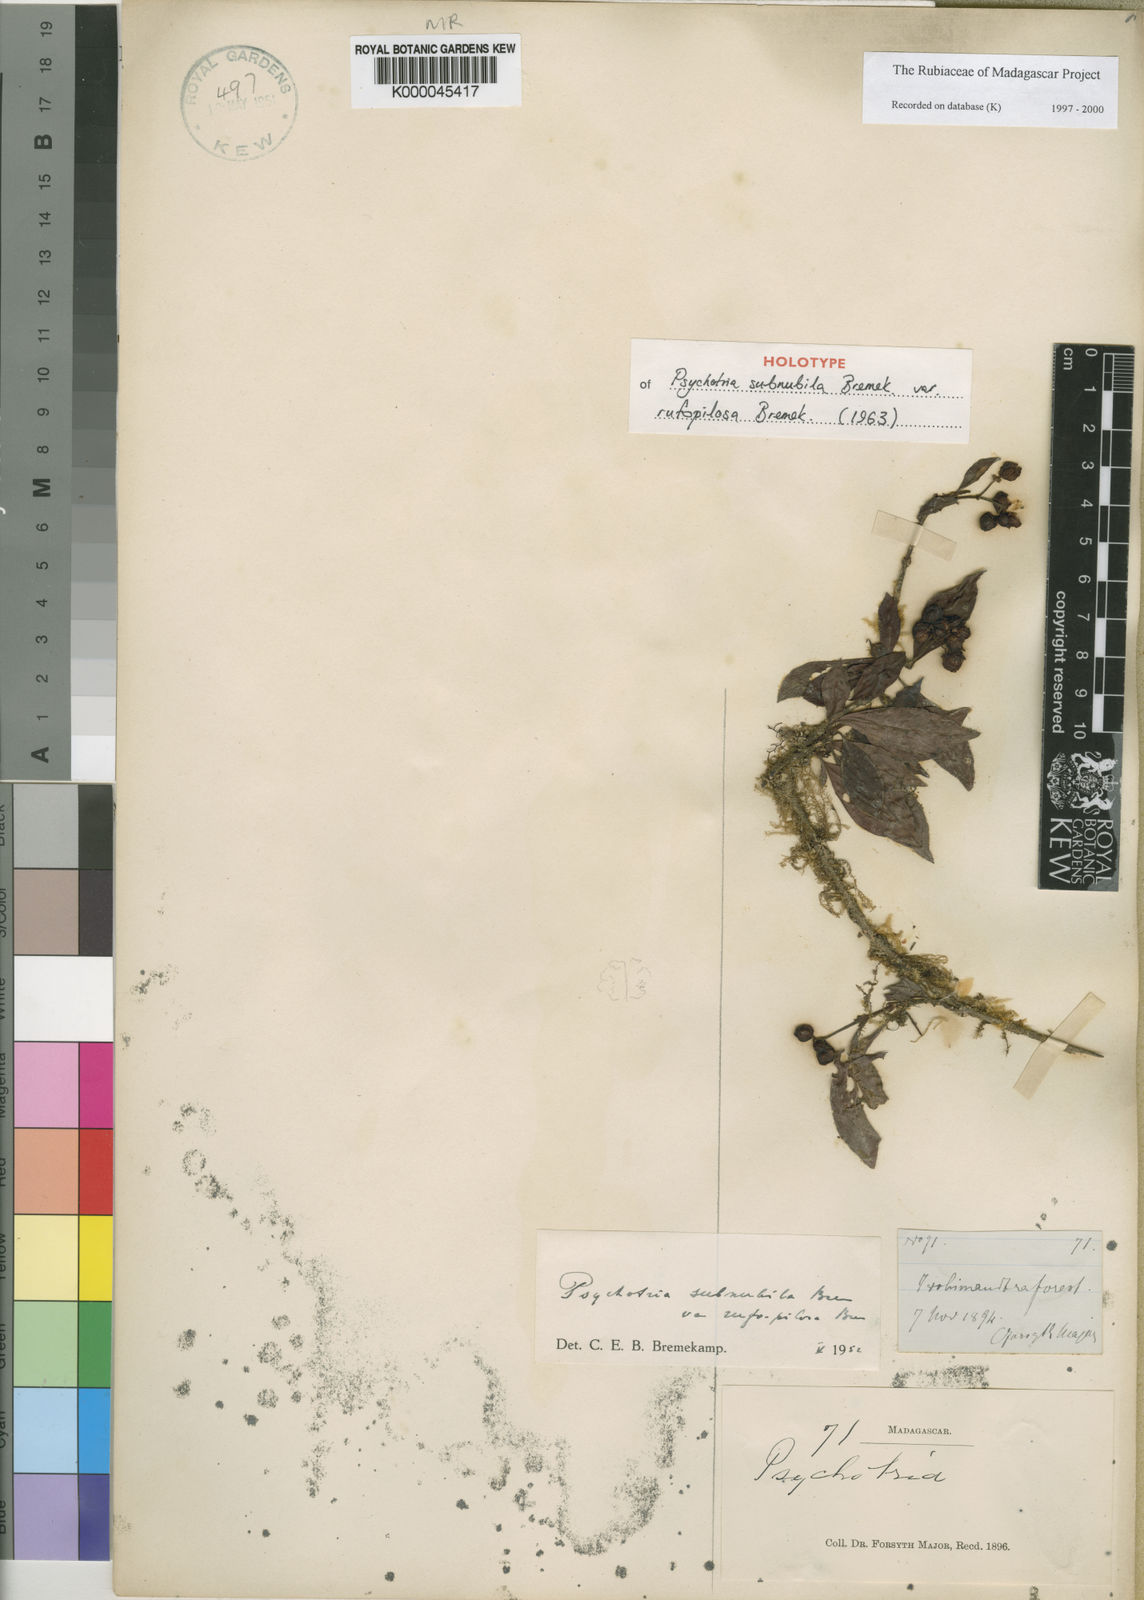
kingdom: Plantae
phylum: Tracheophyta
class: Magnoliopsida
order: Gentianales
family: Rubiaceae
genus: Psychotria
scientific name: Psychotria subnubila
